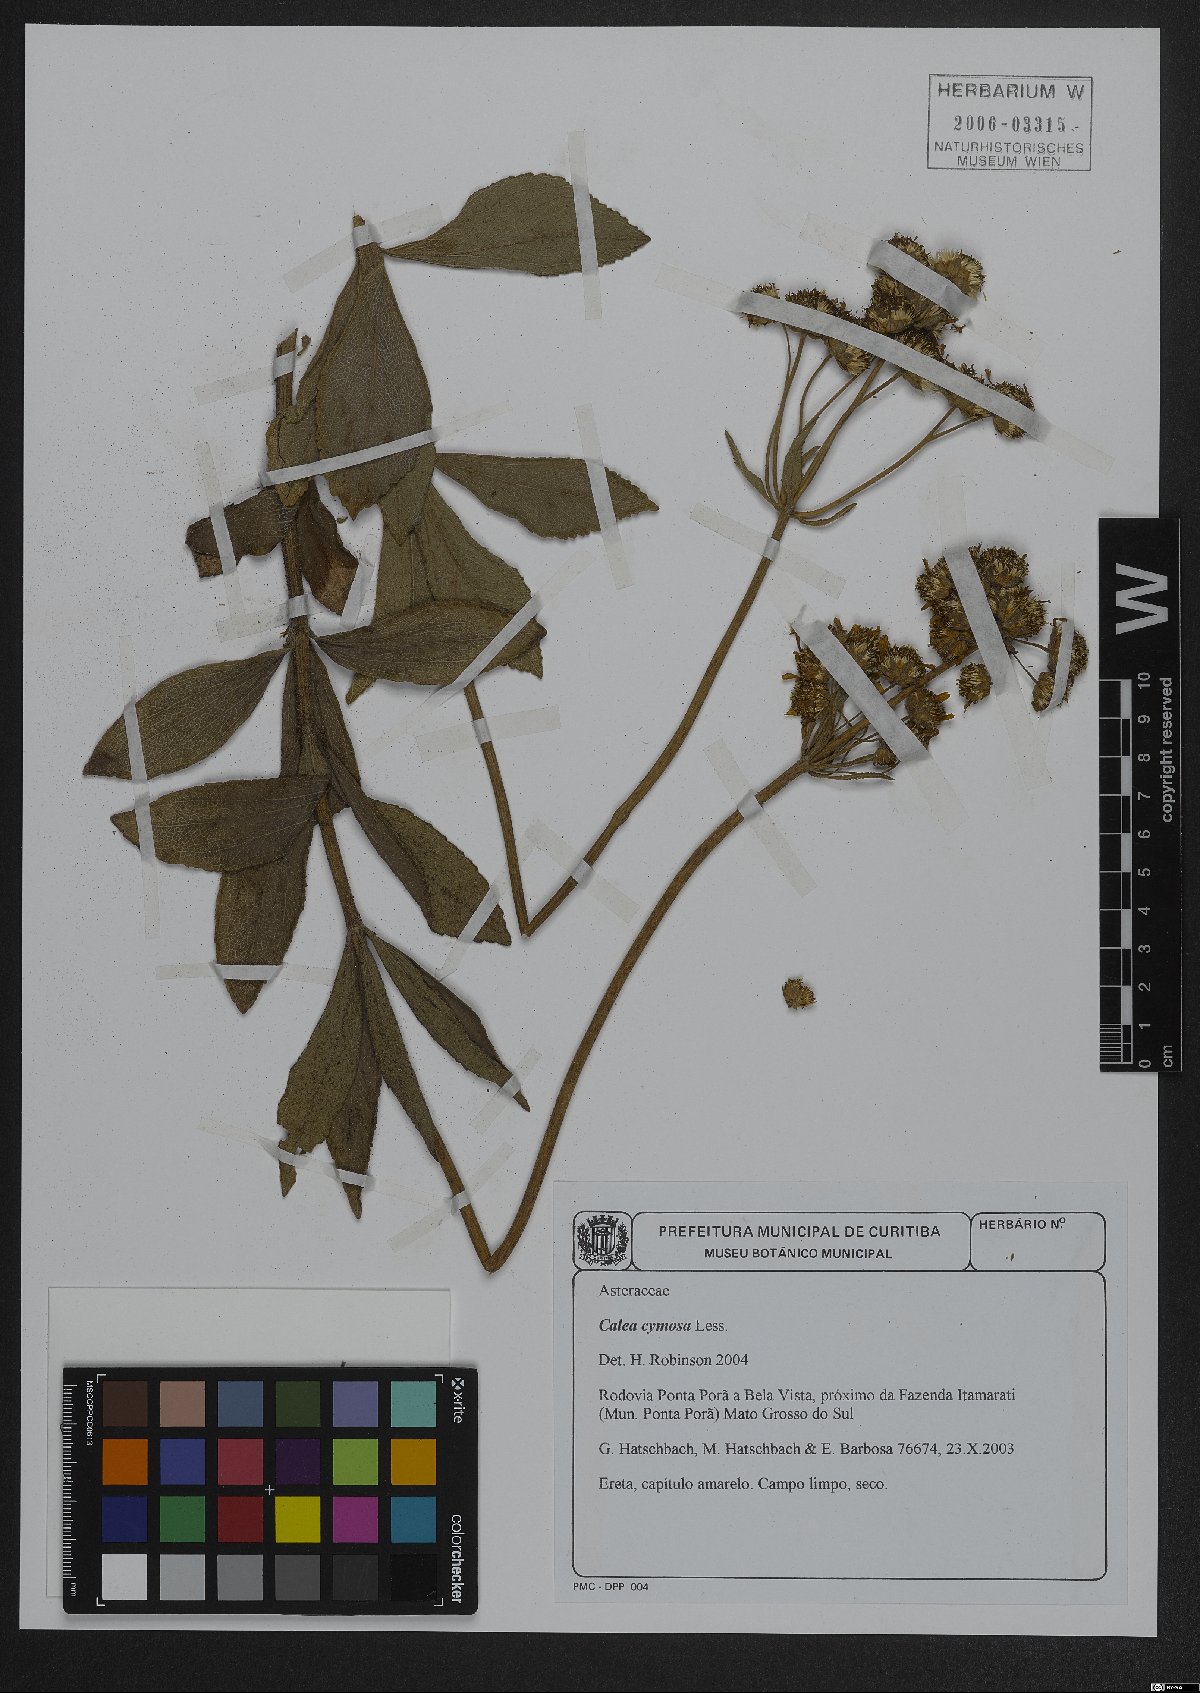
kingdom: Plantae
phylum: Tracheophyta
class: Magnoliopsida
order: Asterales
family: Asteraceae
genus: Calea
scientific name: Calea cymosa
